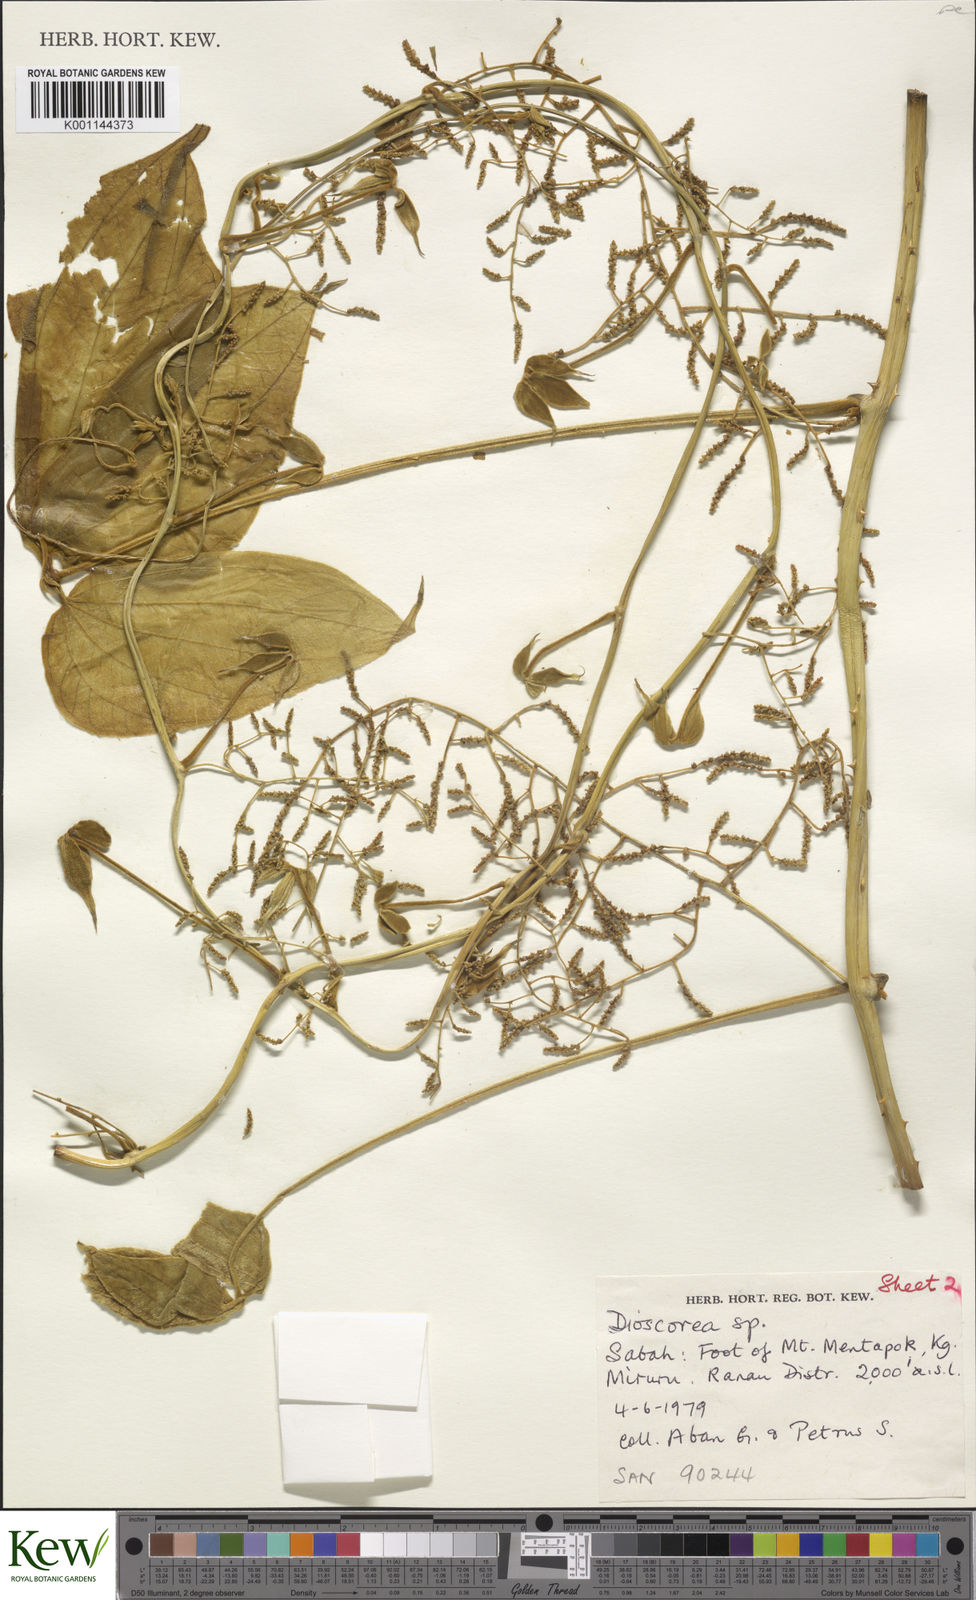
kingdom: Plantae
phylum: Tracheophyta
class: Liliopsida
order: Dioscoreales
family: Dioscoreaceae
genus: Dioscorea
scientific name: Dioscorea hispida
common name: Asiatic bitter yam
